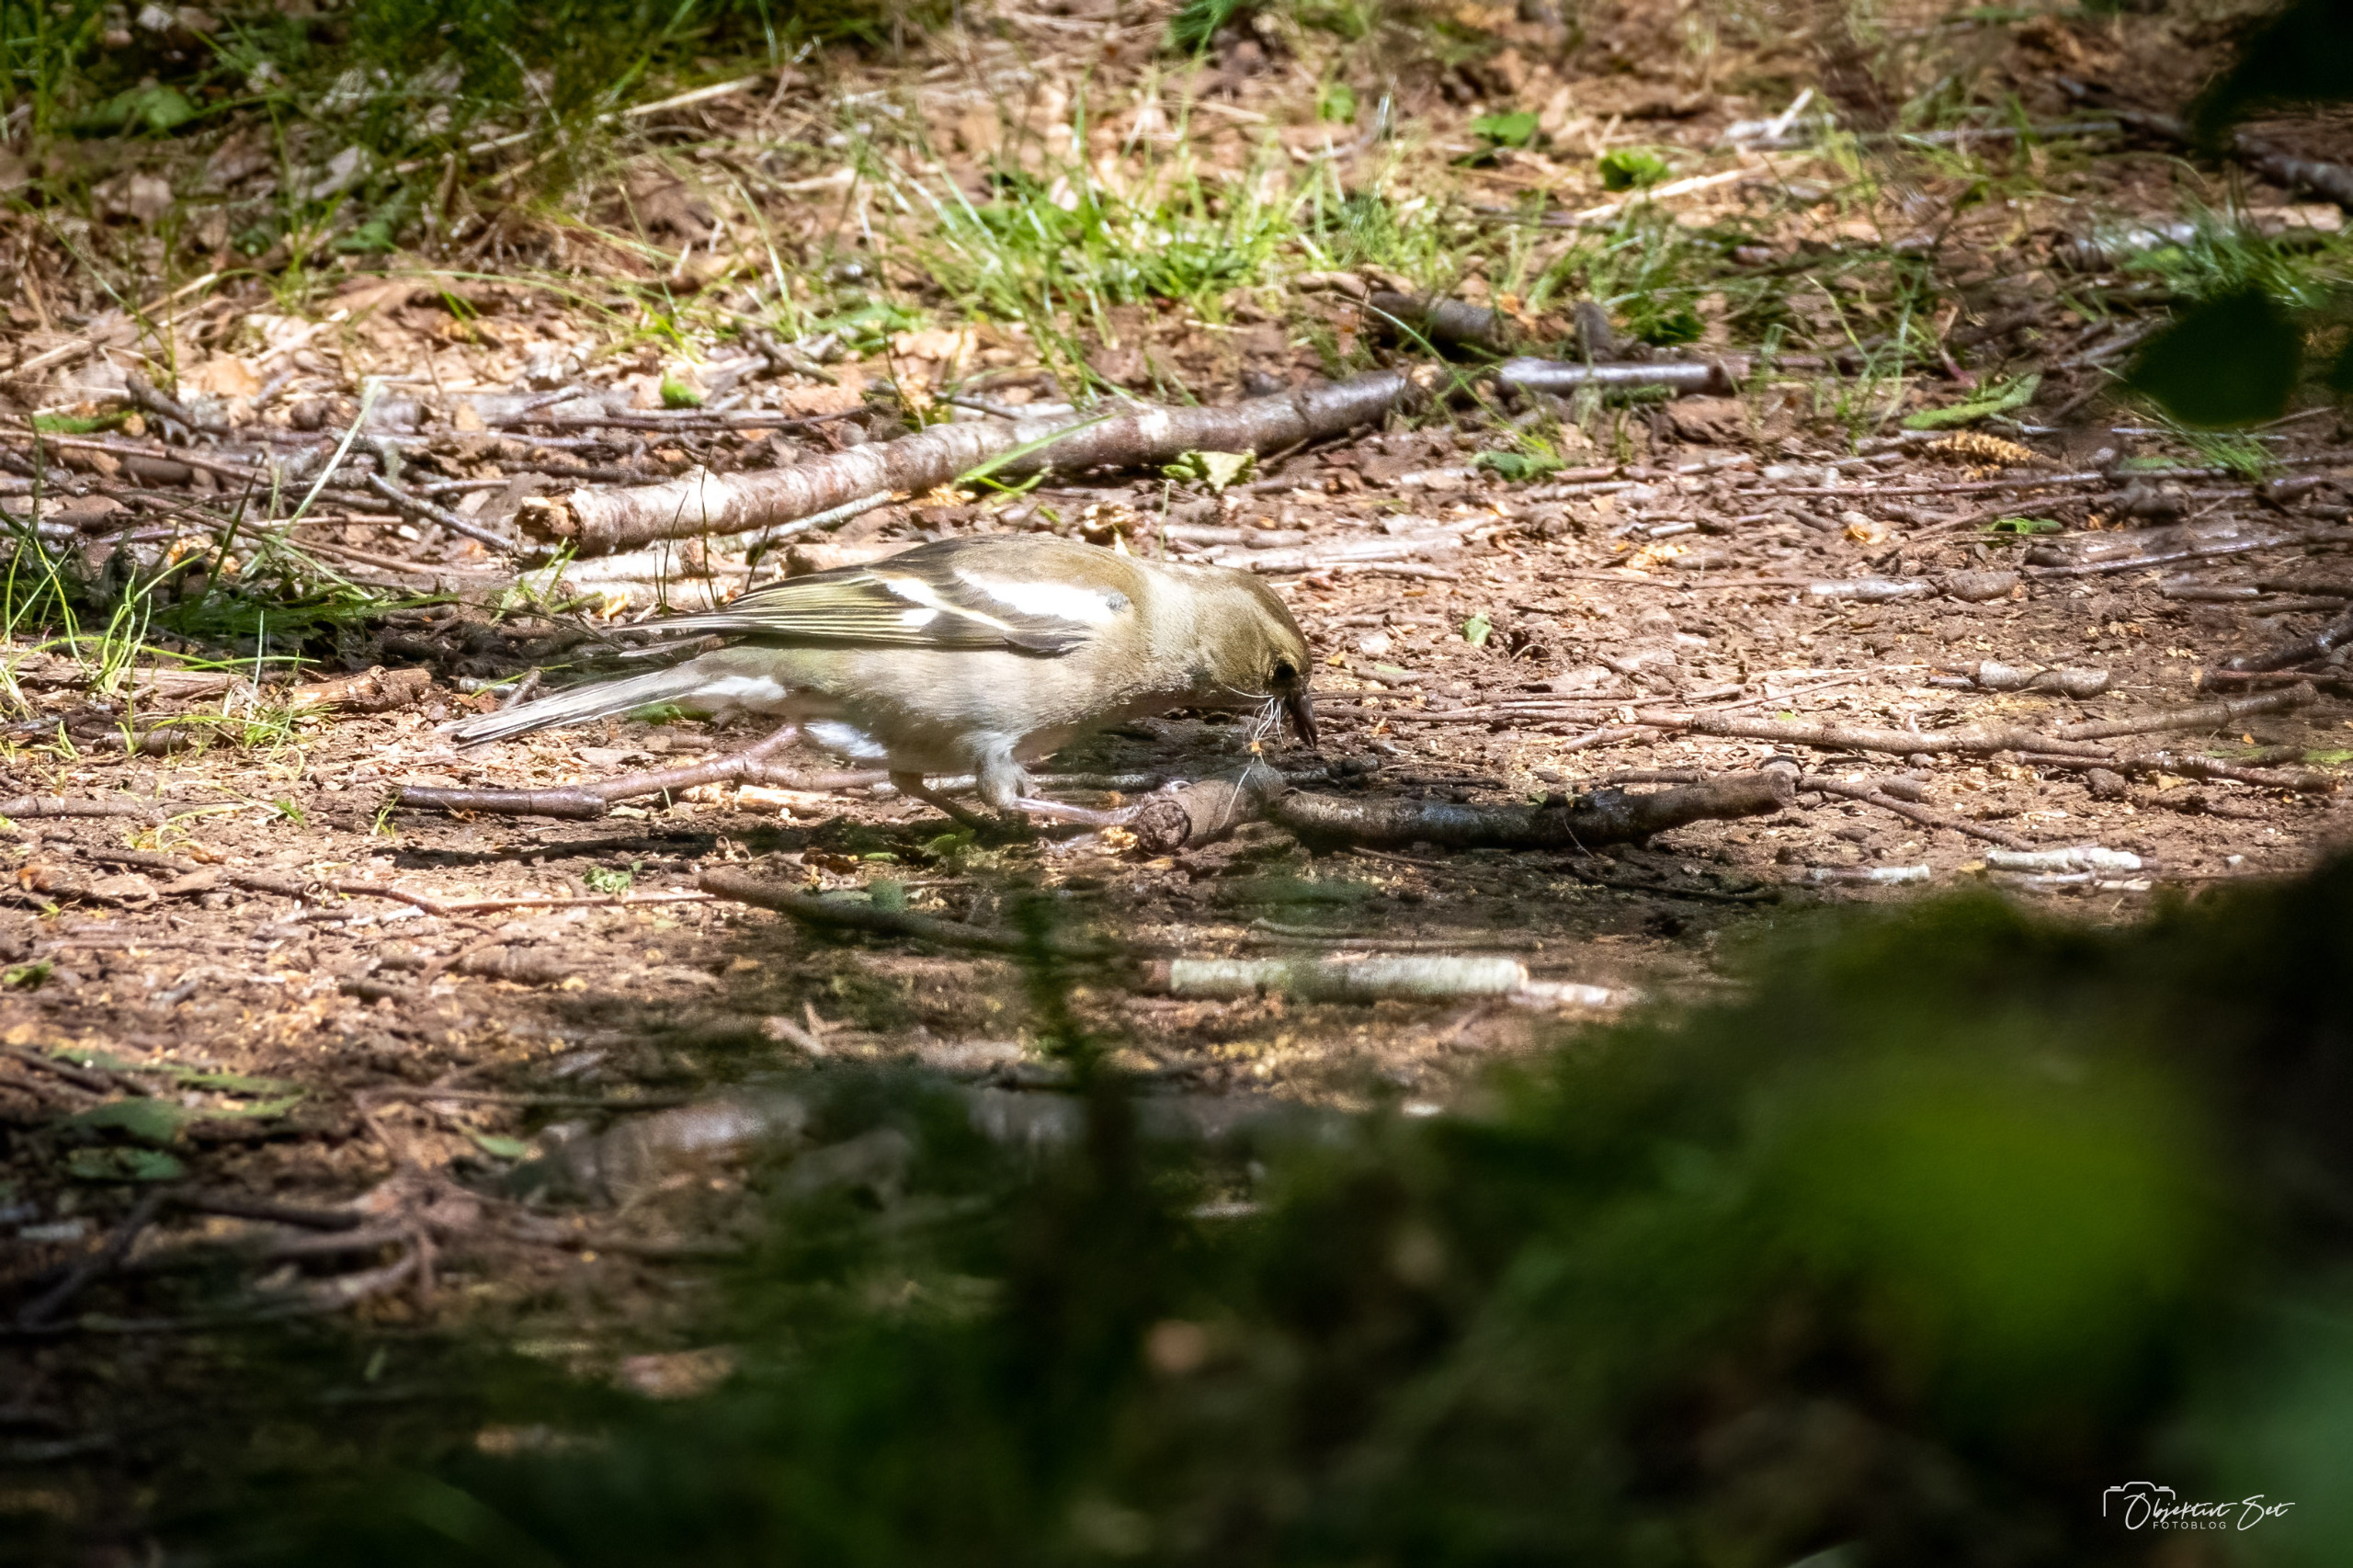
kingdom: Animalia
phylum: Chordata
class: Aves
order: Passeriformes
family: Fringillidae
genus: Fringilla
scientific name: Fringilla coelebs
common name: Bogfinke
